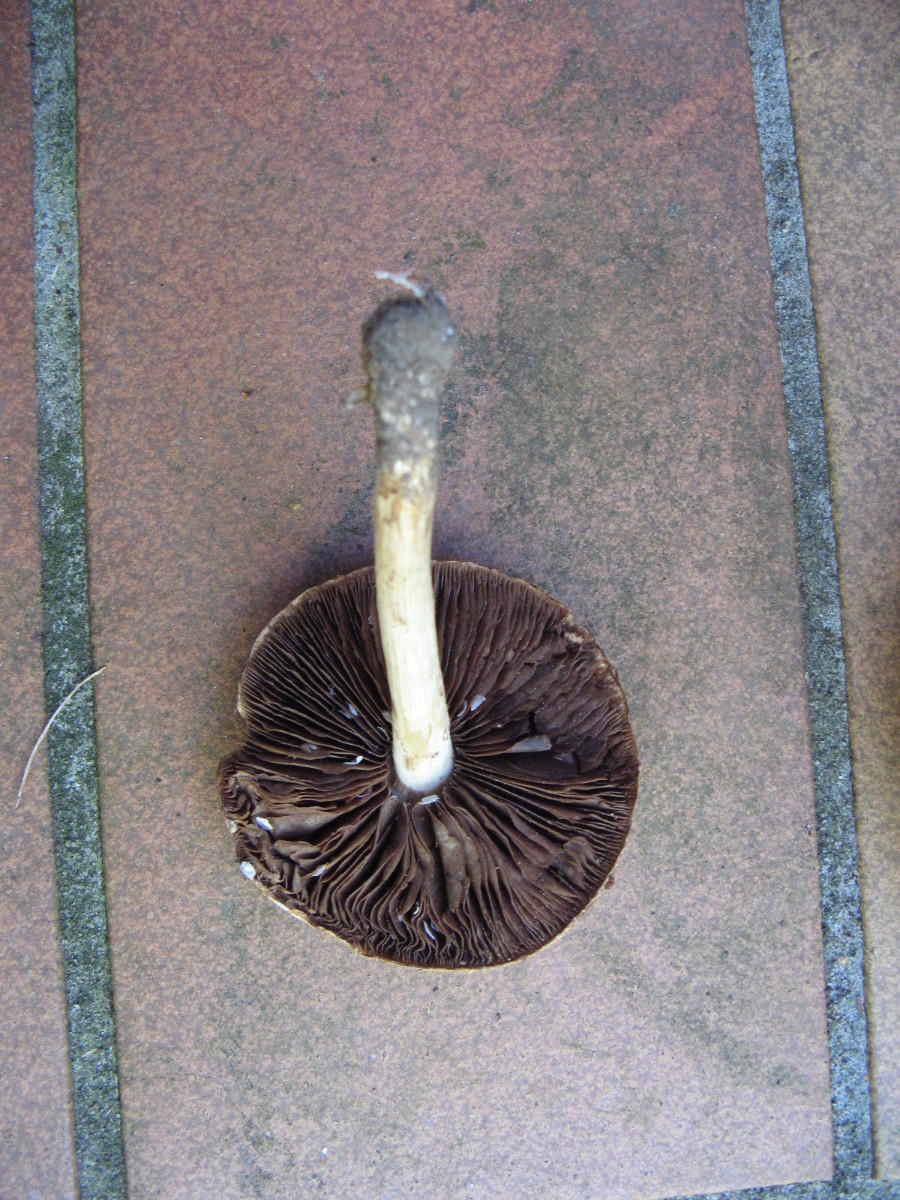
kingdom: Fungi
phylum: Basidiomycota
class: Agaricomycetes
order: Agaricales
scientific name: Agaricales
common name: champignonordenen
